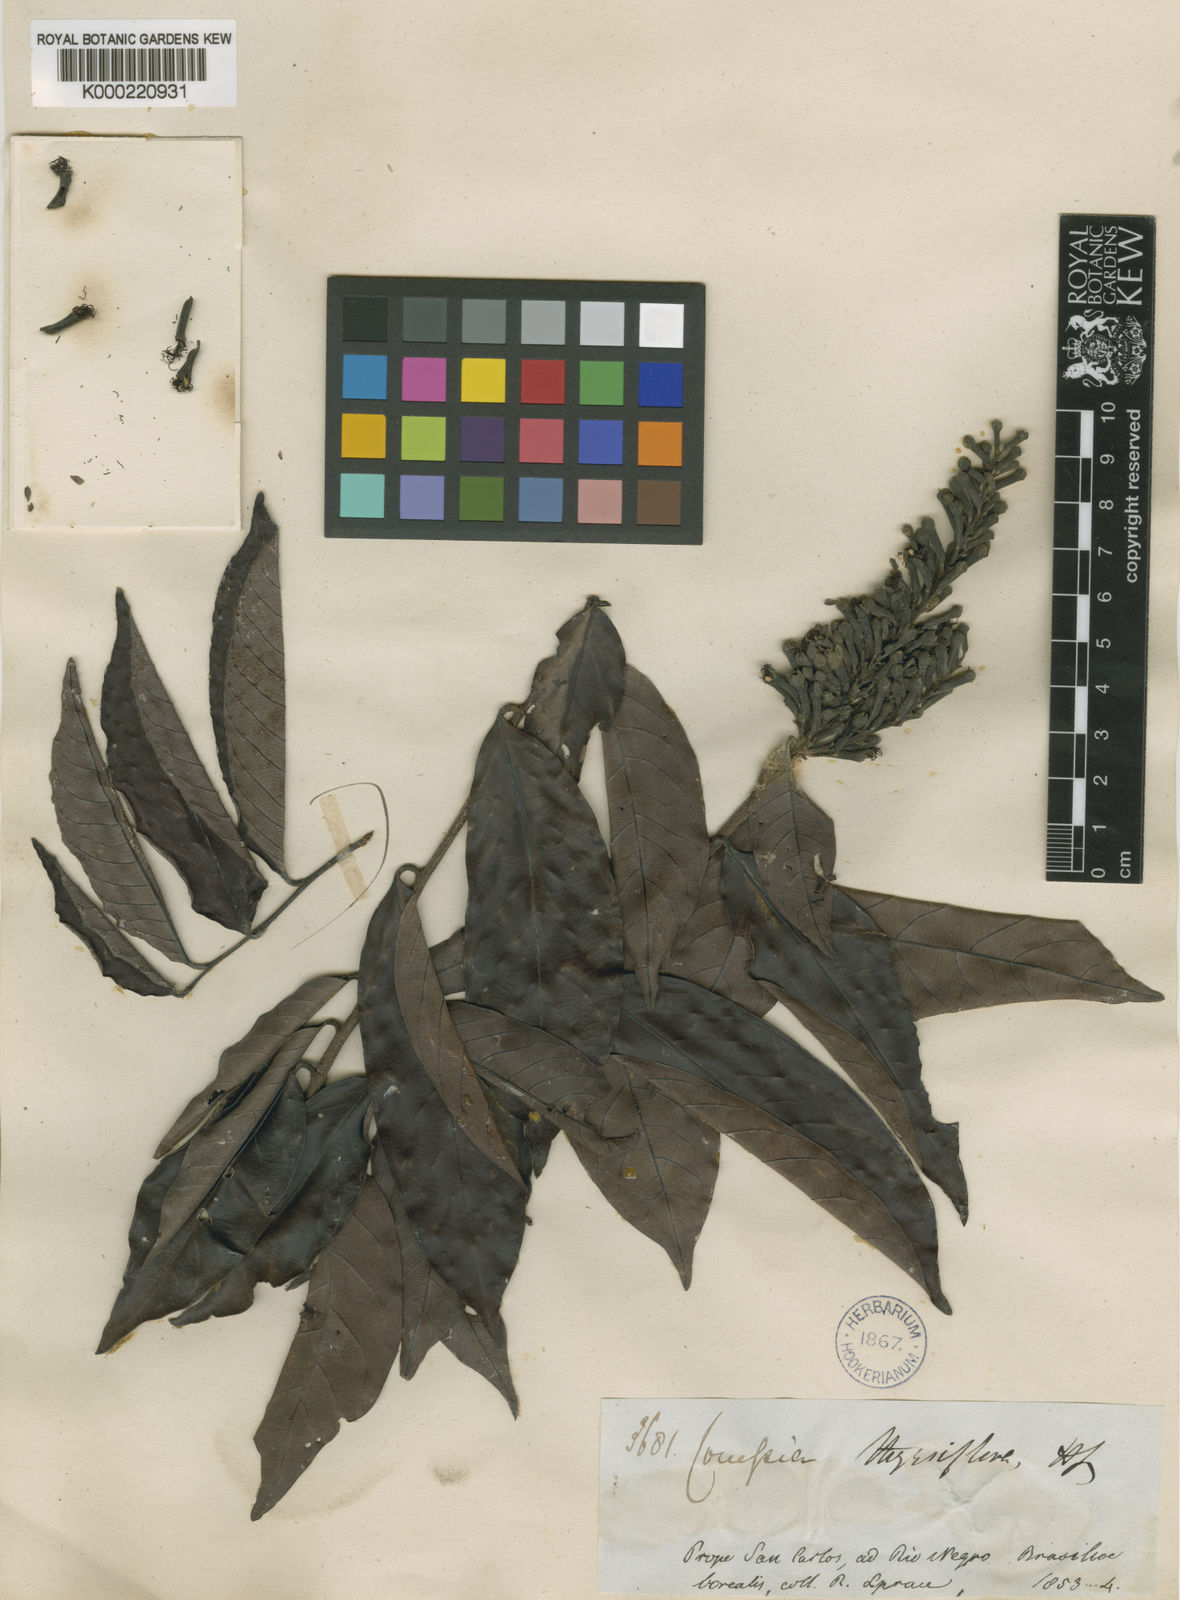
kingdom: Plantae
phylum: Tracheophyta
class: Magnoliopsida
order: Malpighiales
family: Chrysobalanaceae
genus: Couepia
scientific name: Couepia guianensis
